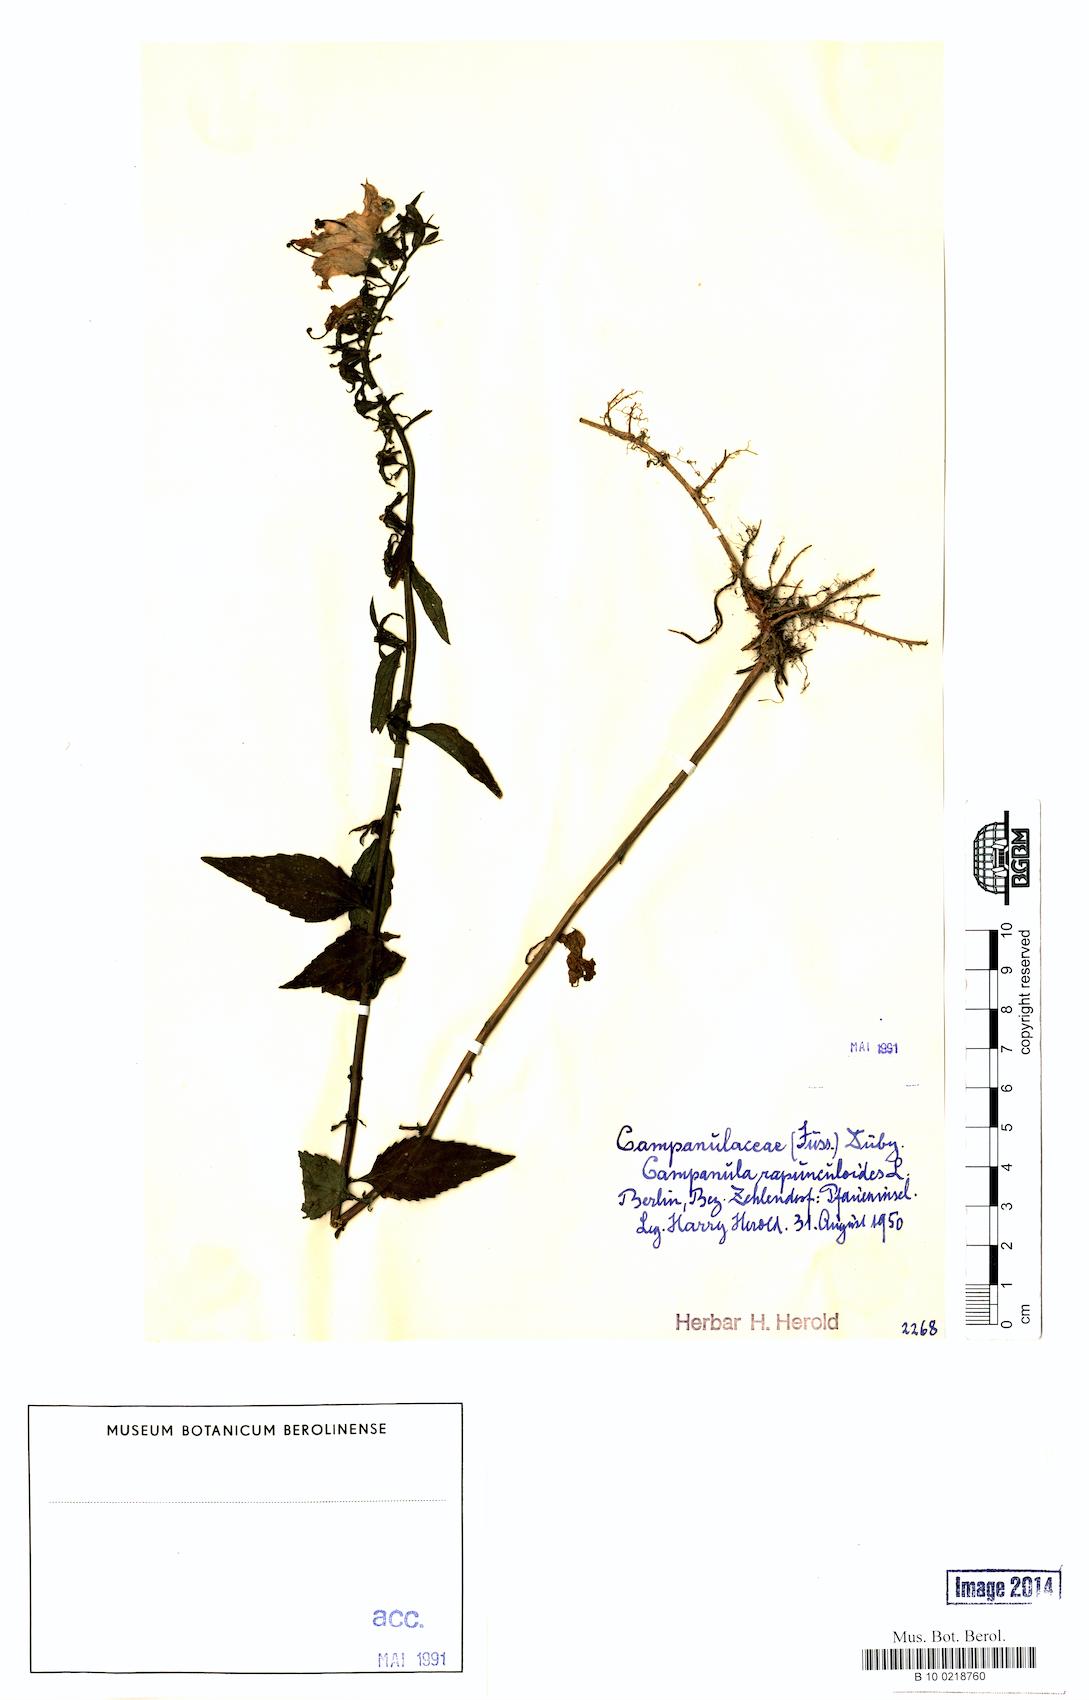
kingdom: Plantae
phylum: Tracheophyta
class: Magnoliopsida
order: Asterales
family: Campanulaceae
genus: Campanula
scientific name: Campanula rapunculoides
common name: Creeping bellflower
